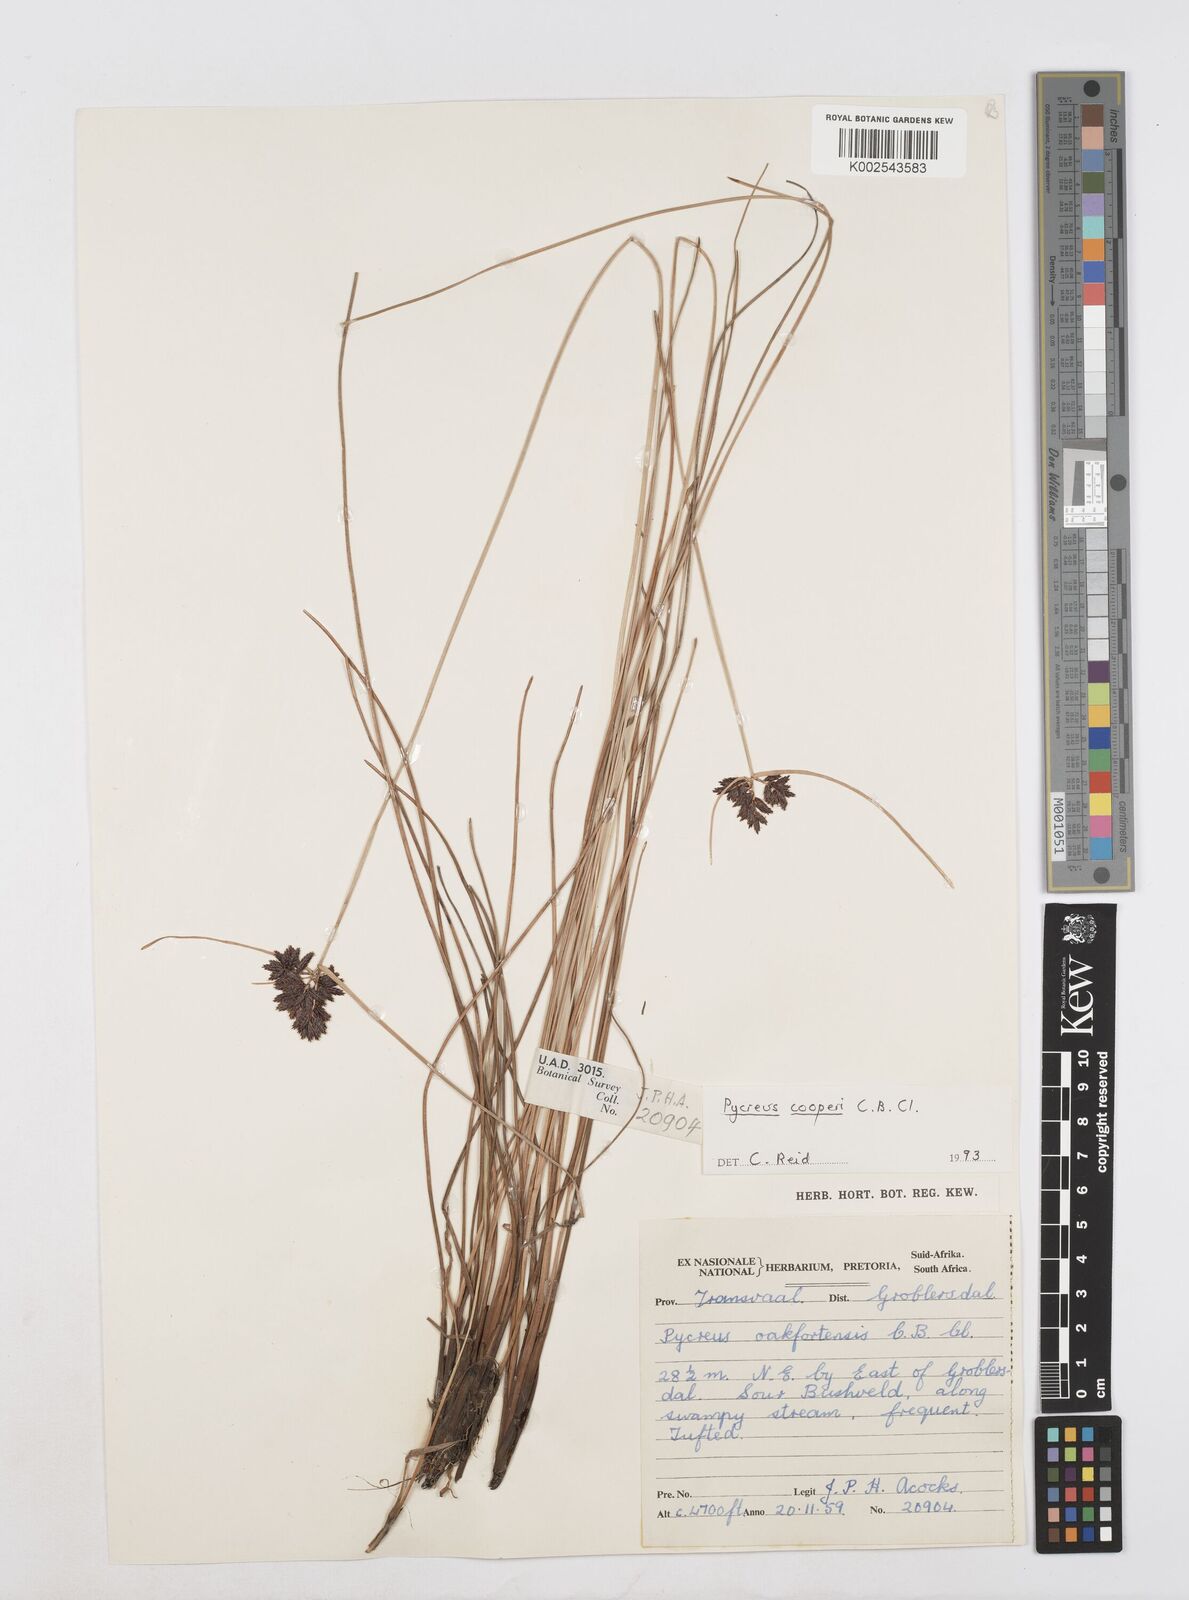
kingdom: Plantae
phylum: Tracheophyta
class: Liliopsida
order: Poales
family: Cyperaceae
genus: Cyperus
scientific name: Cyperus
